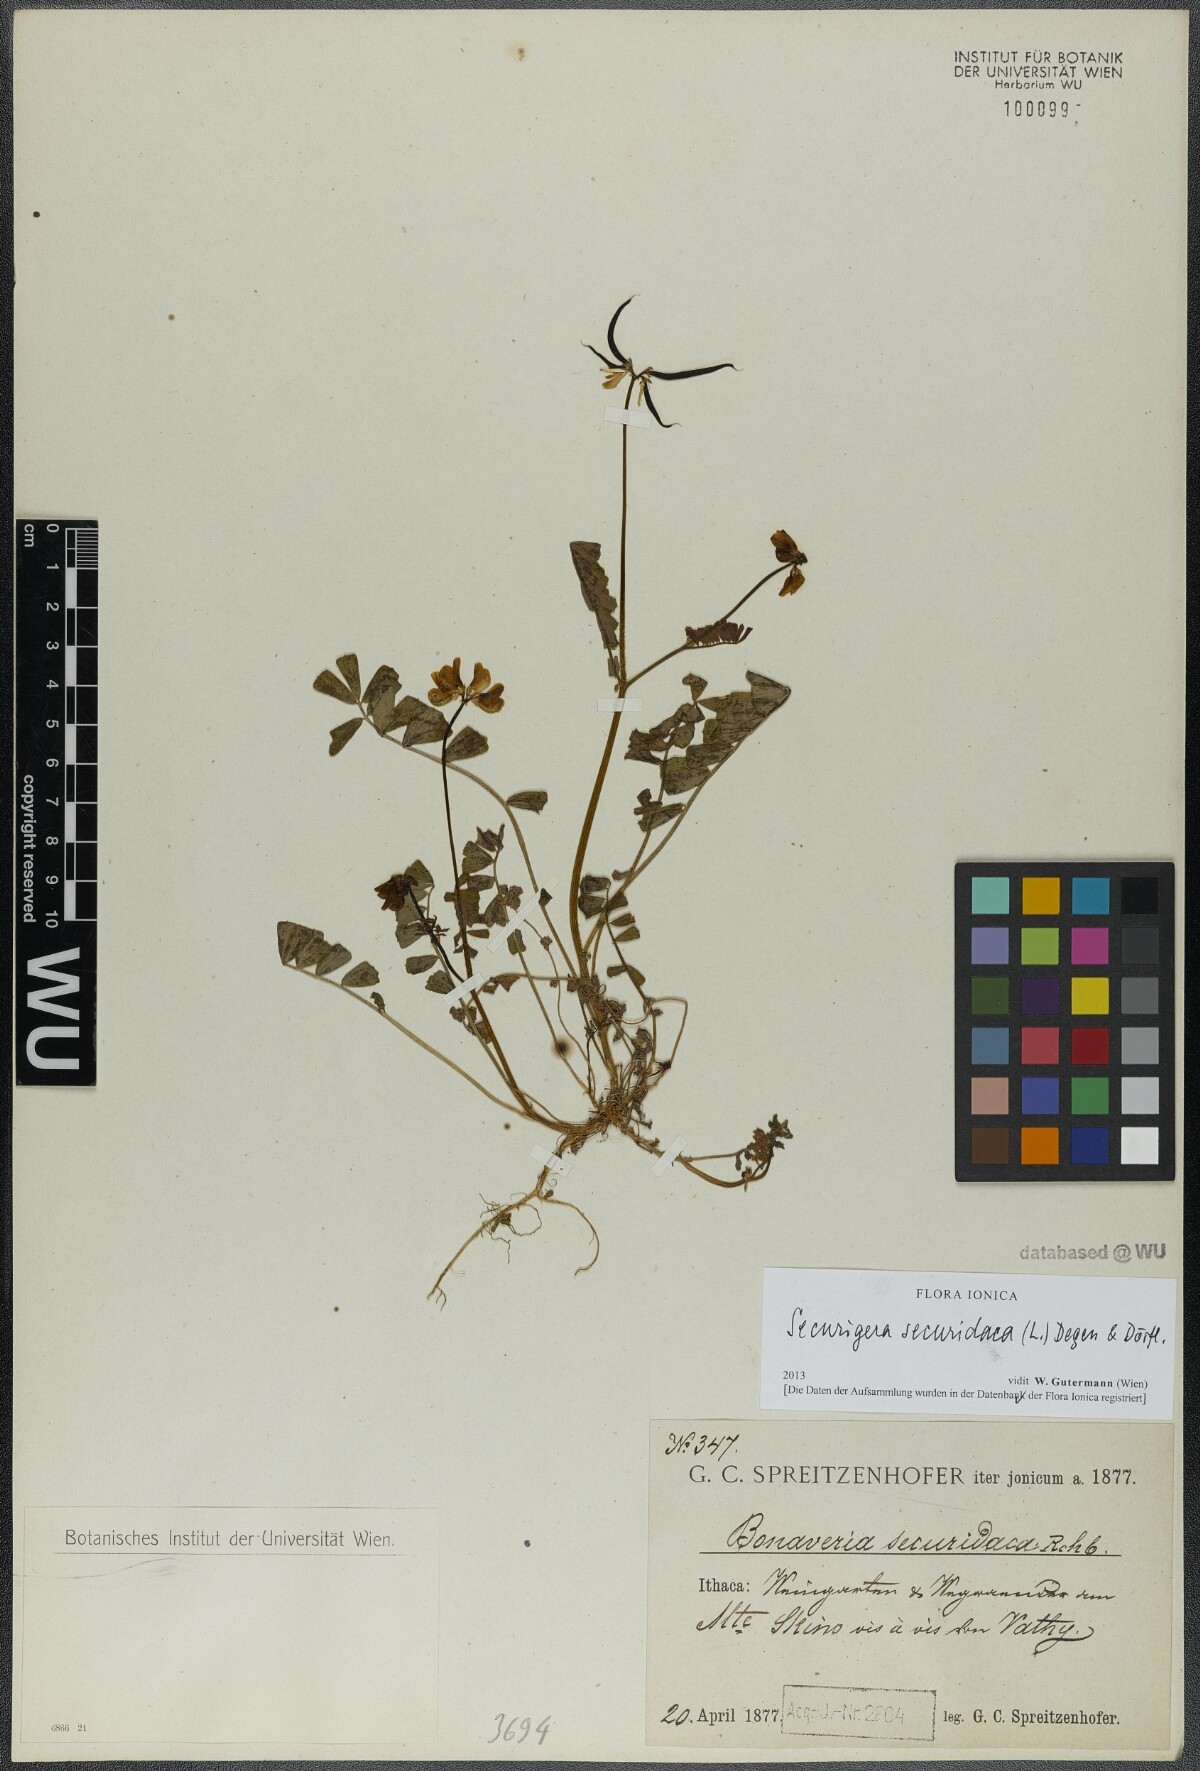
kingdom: Plantae
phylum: Tracheophyta
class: Magnoliopsida
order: Fabales
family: Fabaceae
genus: Coronilla
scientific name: Coronilla securidaca
